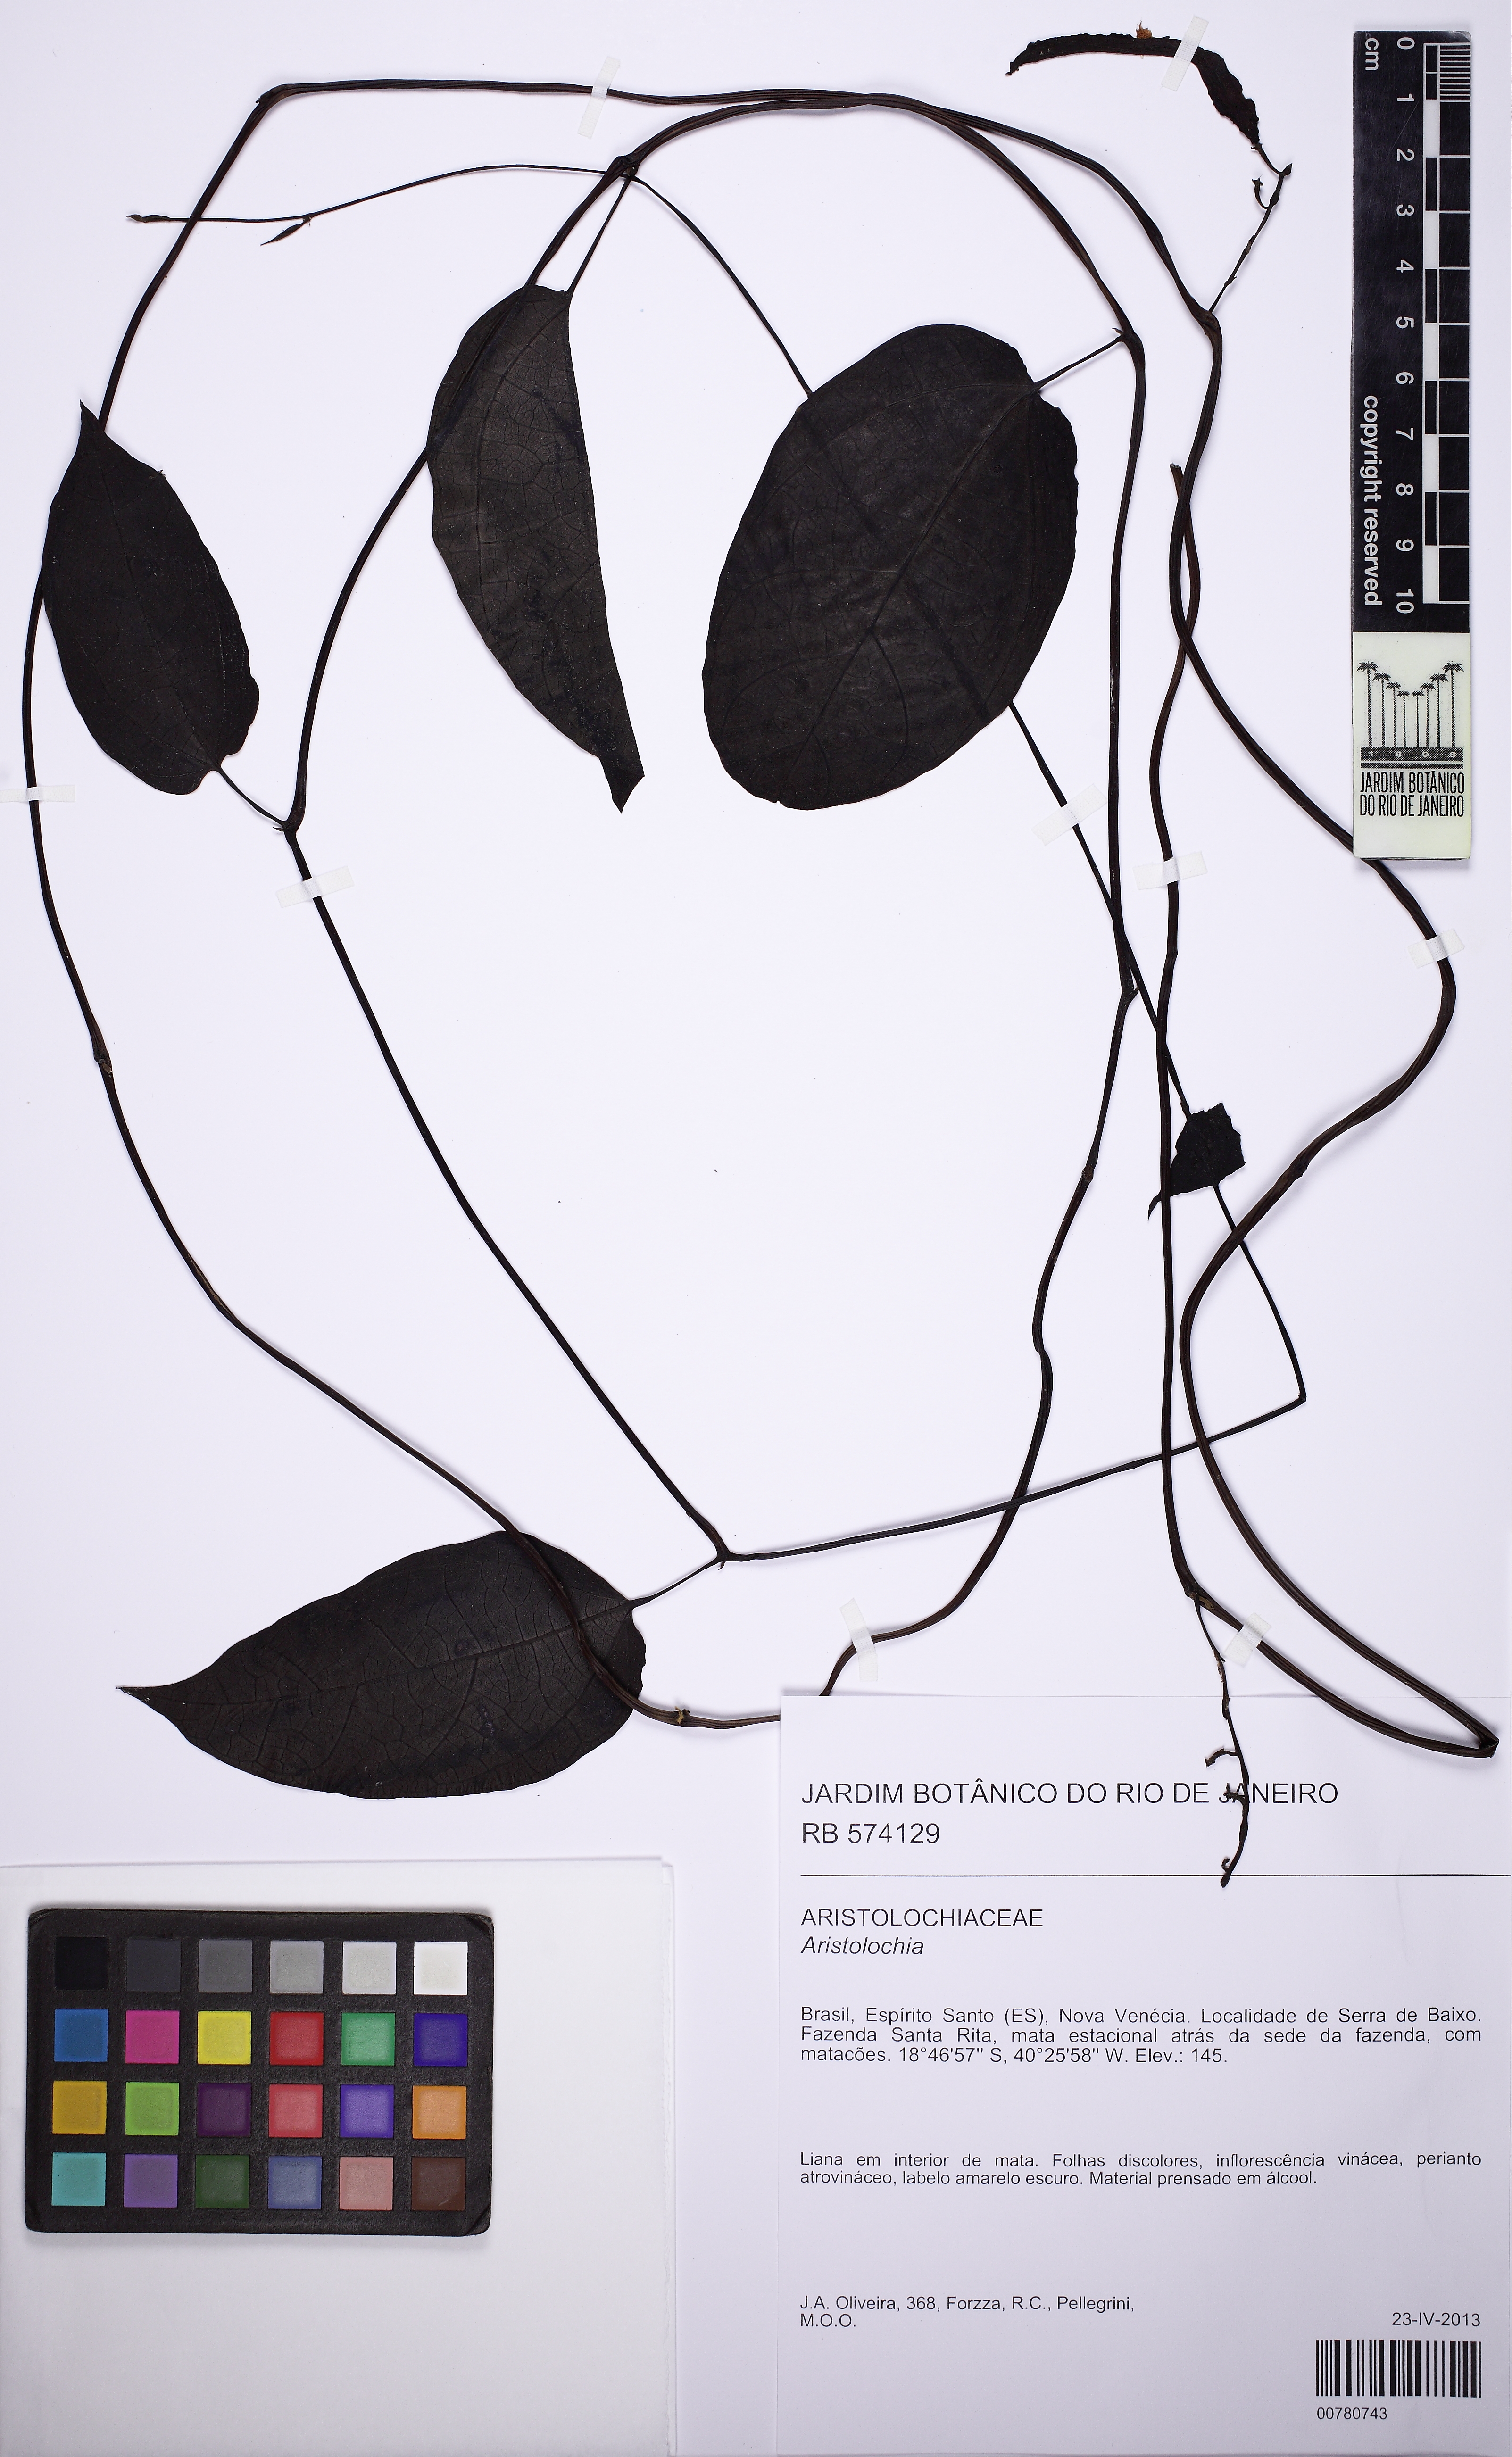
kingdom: Plantae
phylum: Tracheophyta
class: Magnoliopsida
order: Piperales
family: Aristolochiaceae
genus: Aristolochia
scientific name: Aristolochia limai
